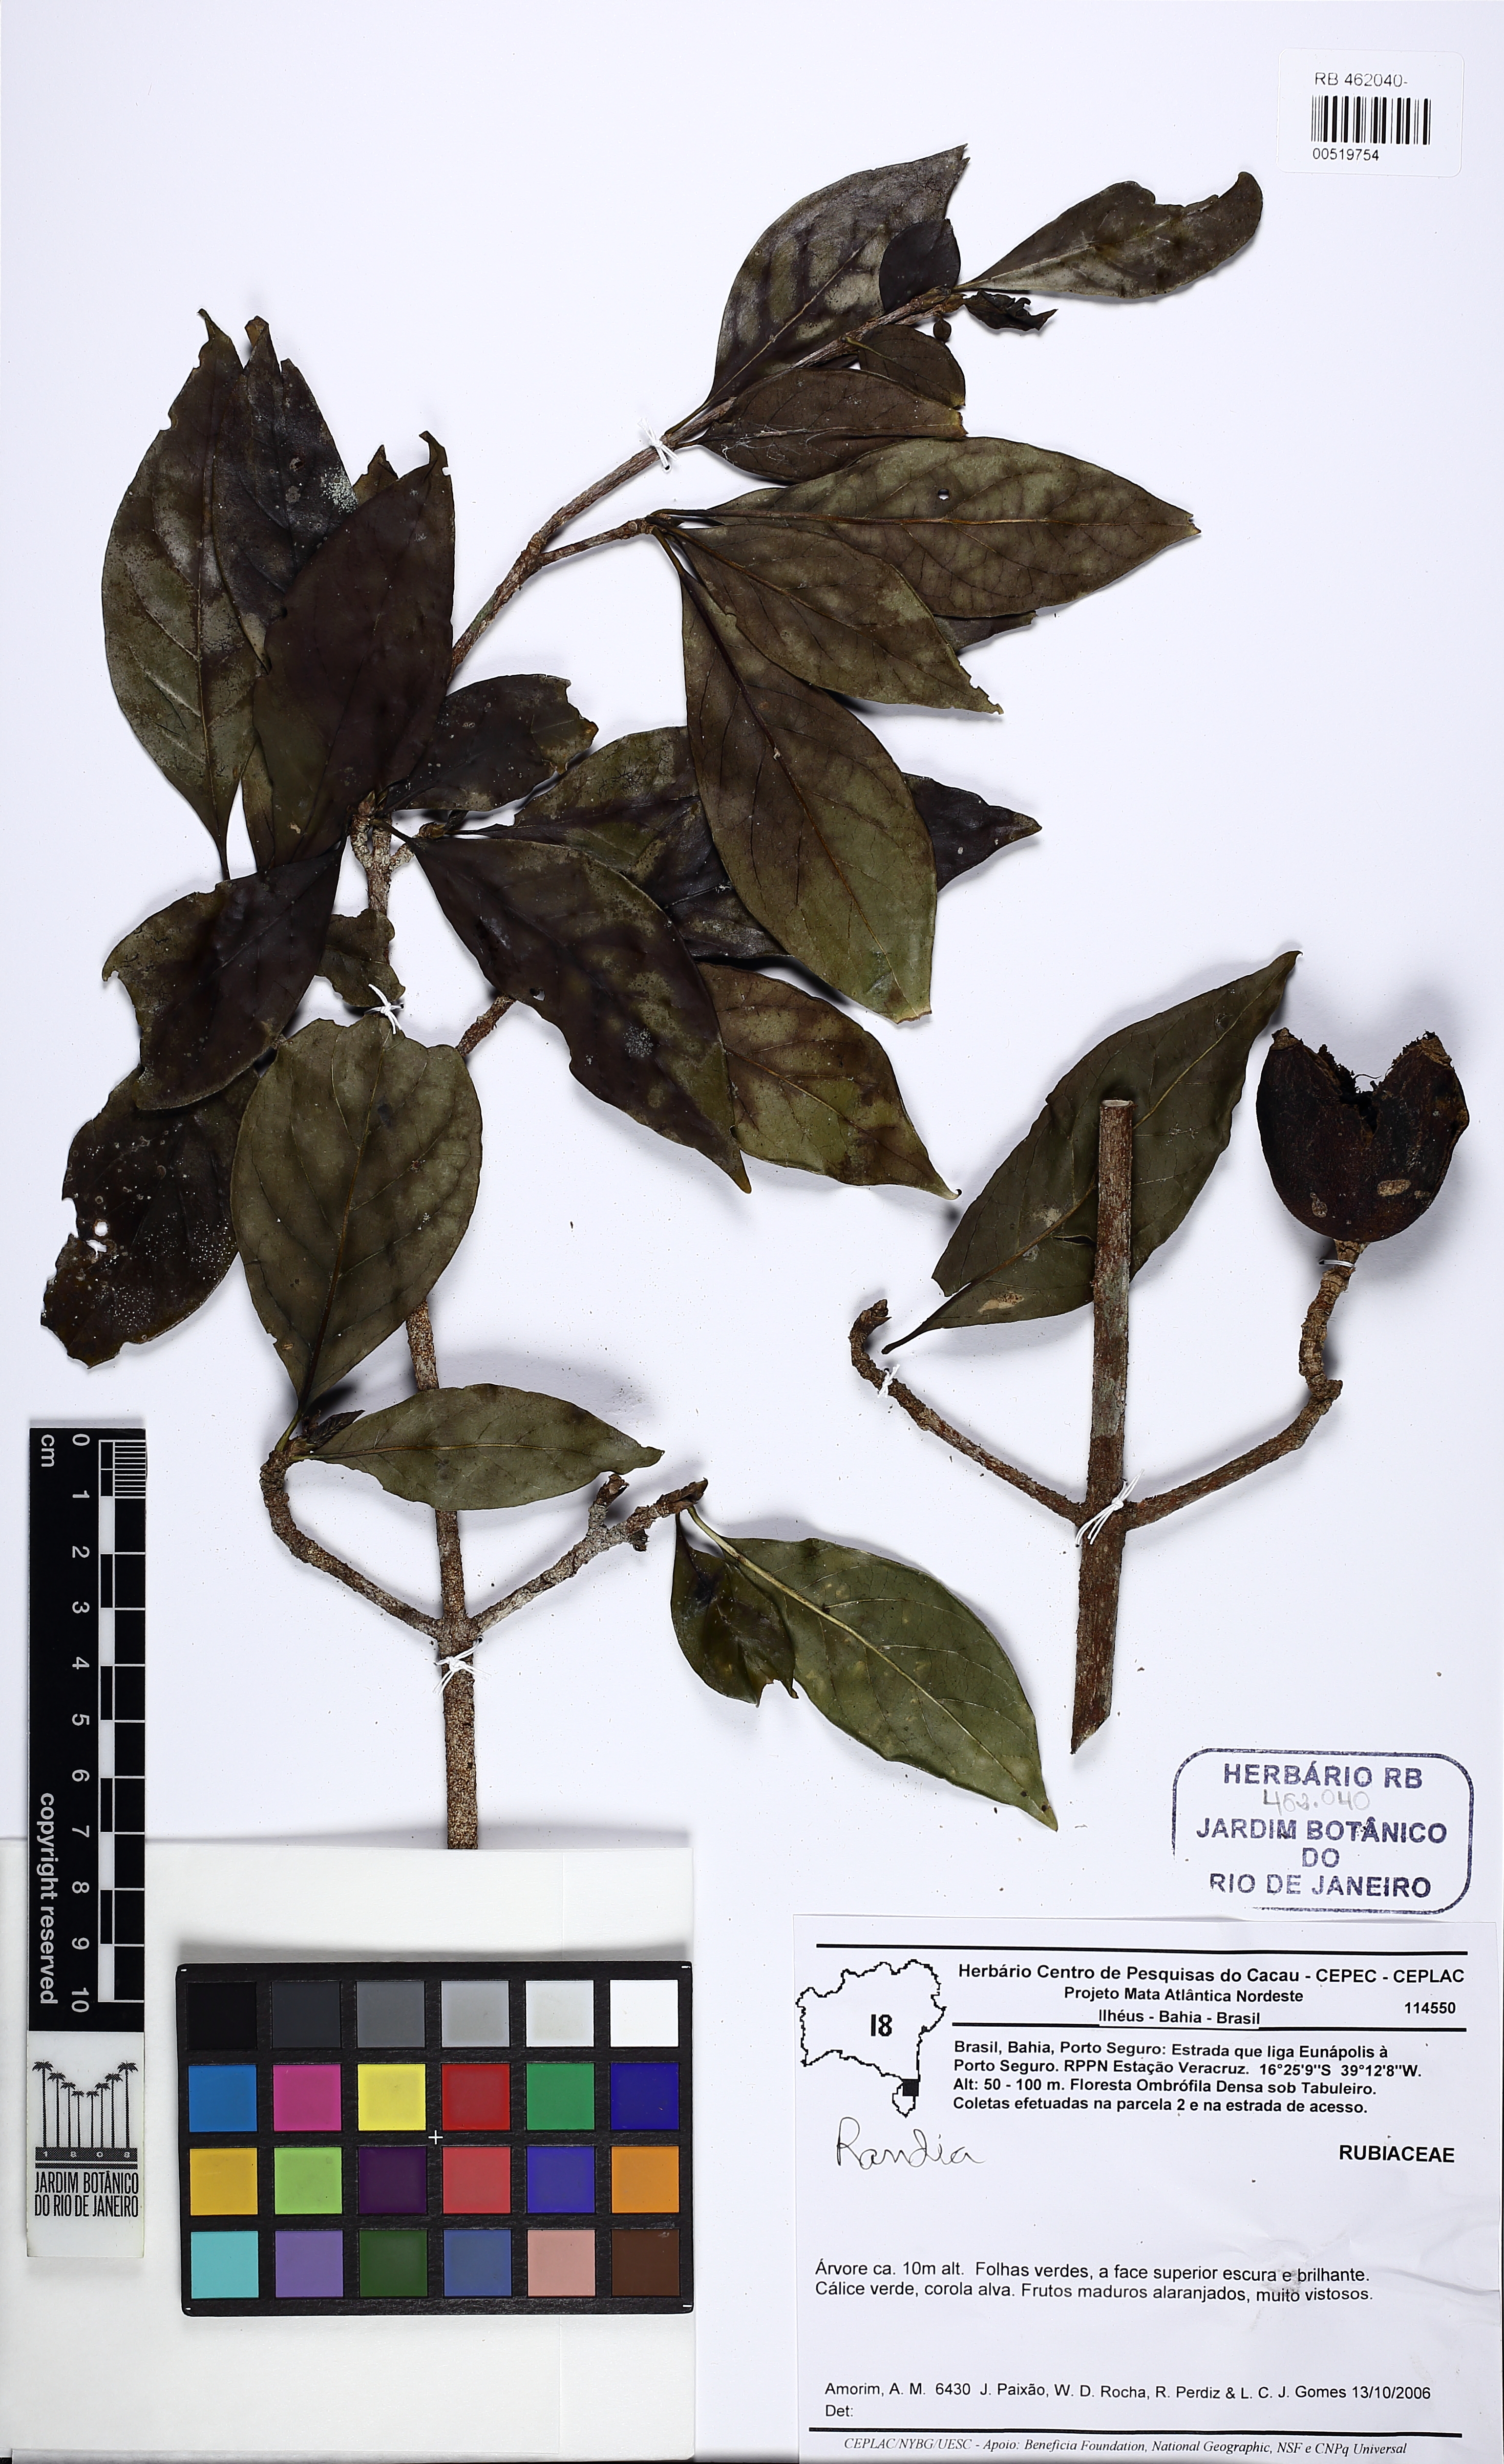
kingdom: Plantae
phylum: Tracheophyta
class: Magnoliopsida
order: Gentianales
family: Rubiaceae
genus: Randia
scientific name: Randia ferox
